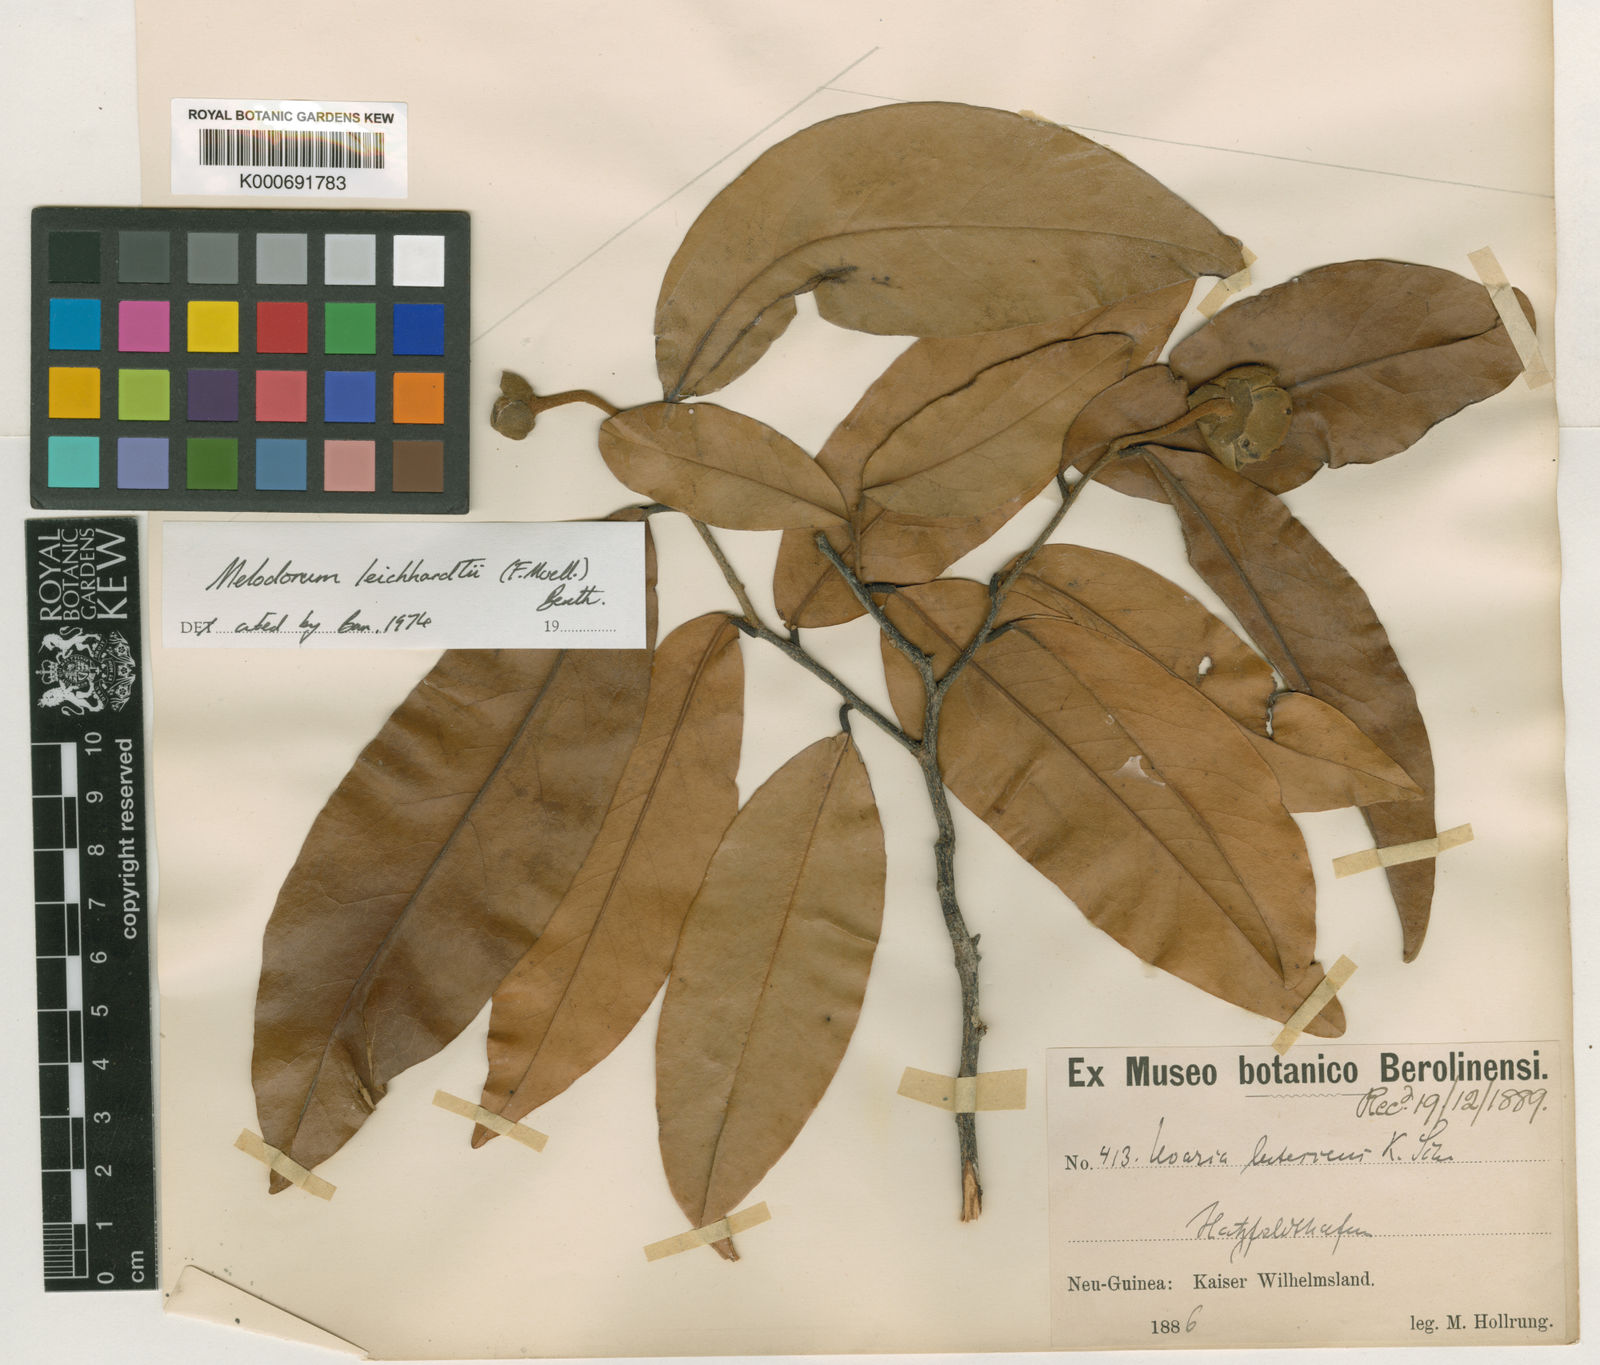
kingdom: Plantae
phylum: Tracheophyta
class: Magnoliopsida
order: Magnoliales
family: Annonaceae
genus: Melodorum
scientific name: Melodorum leichhardtii
